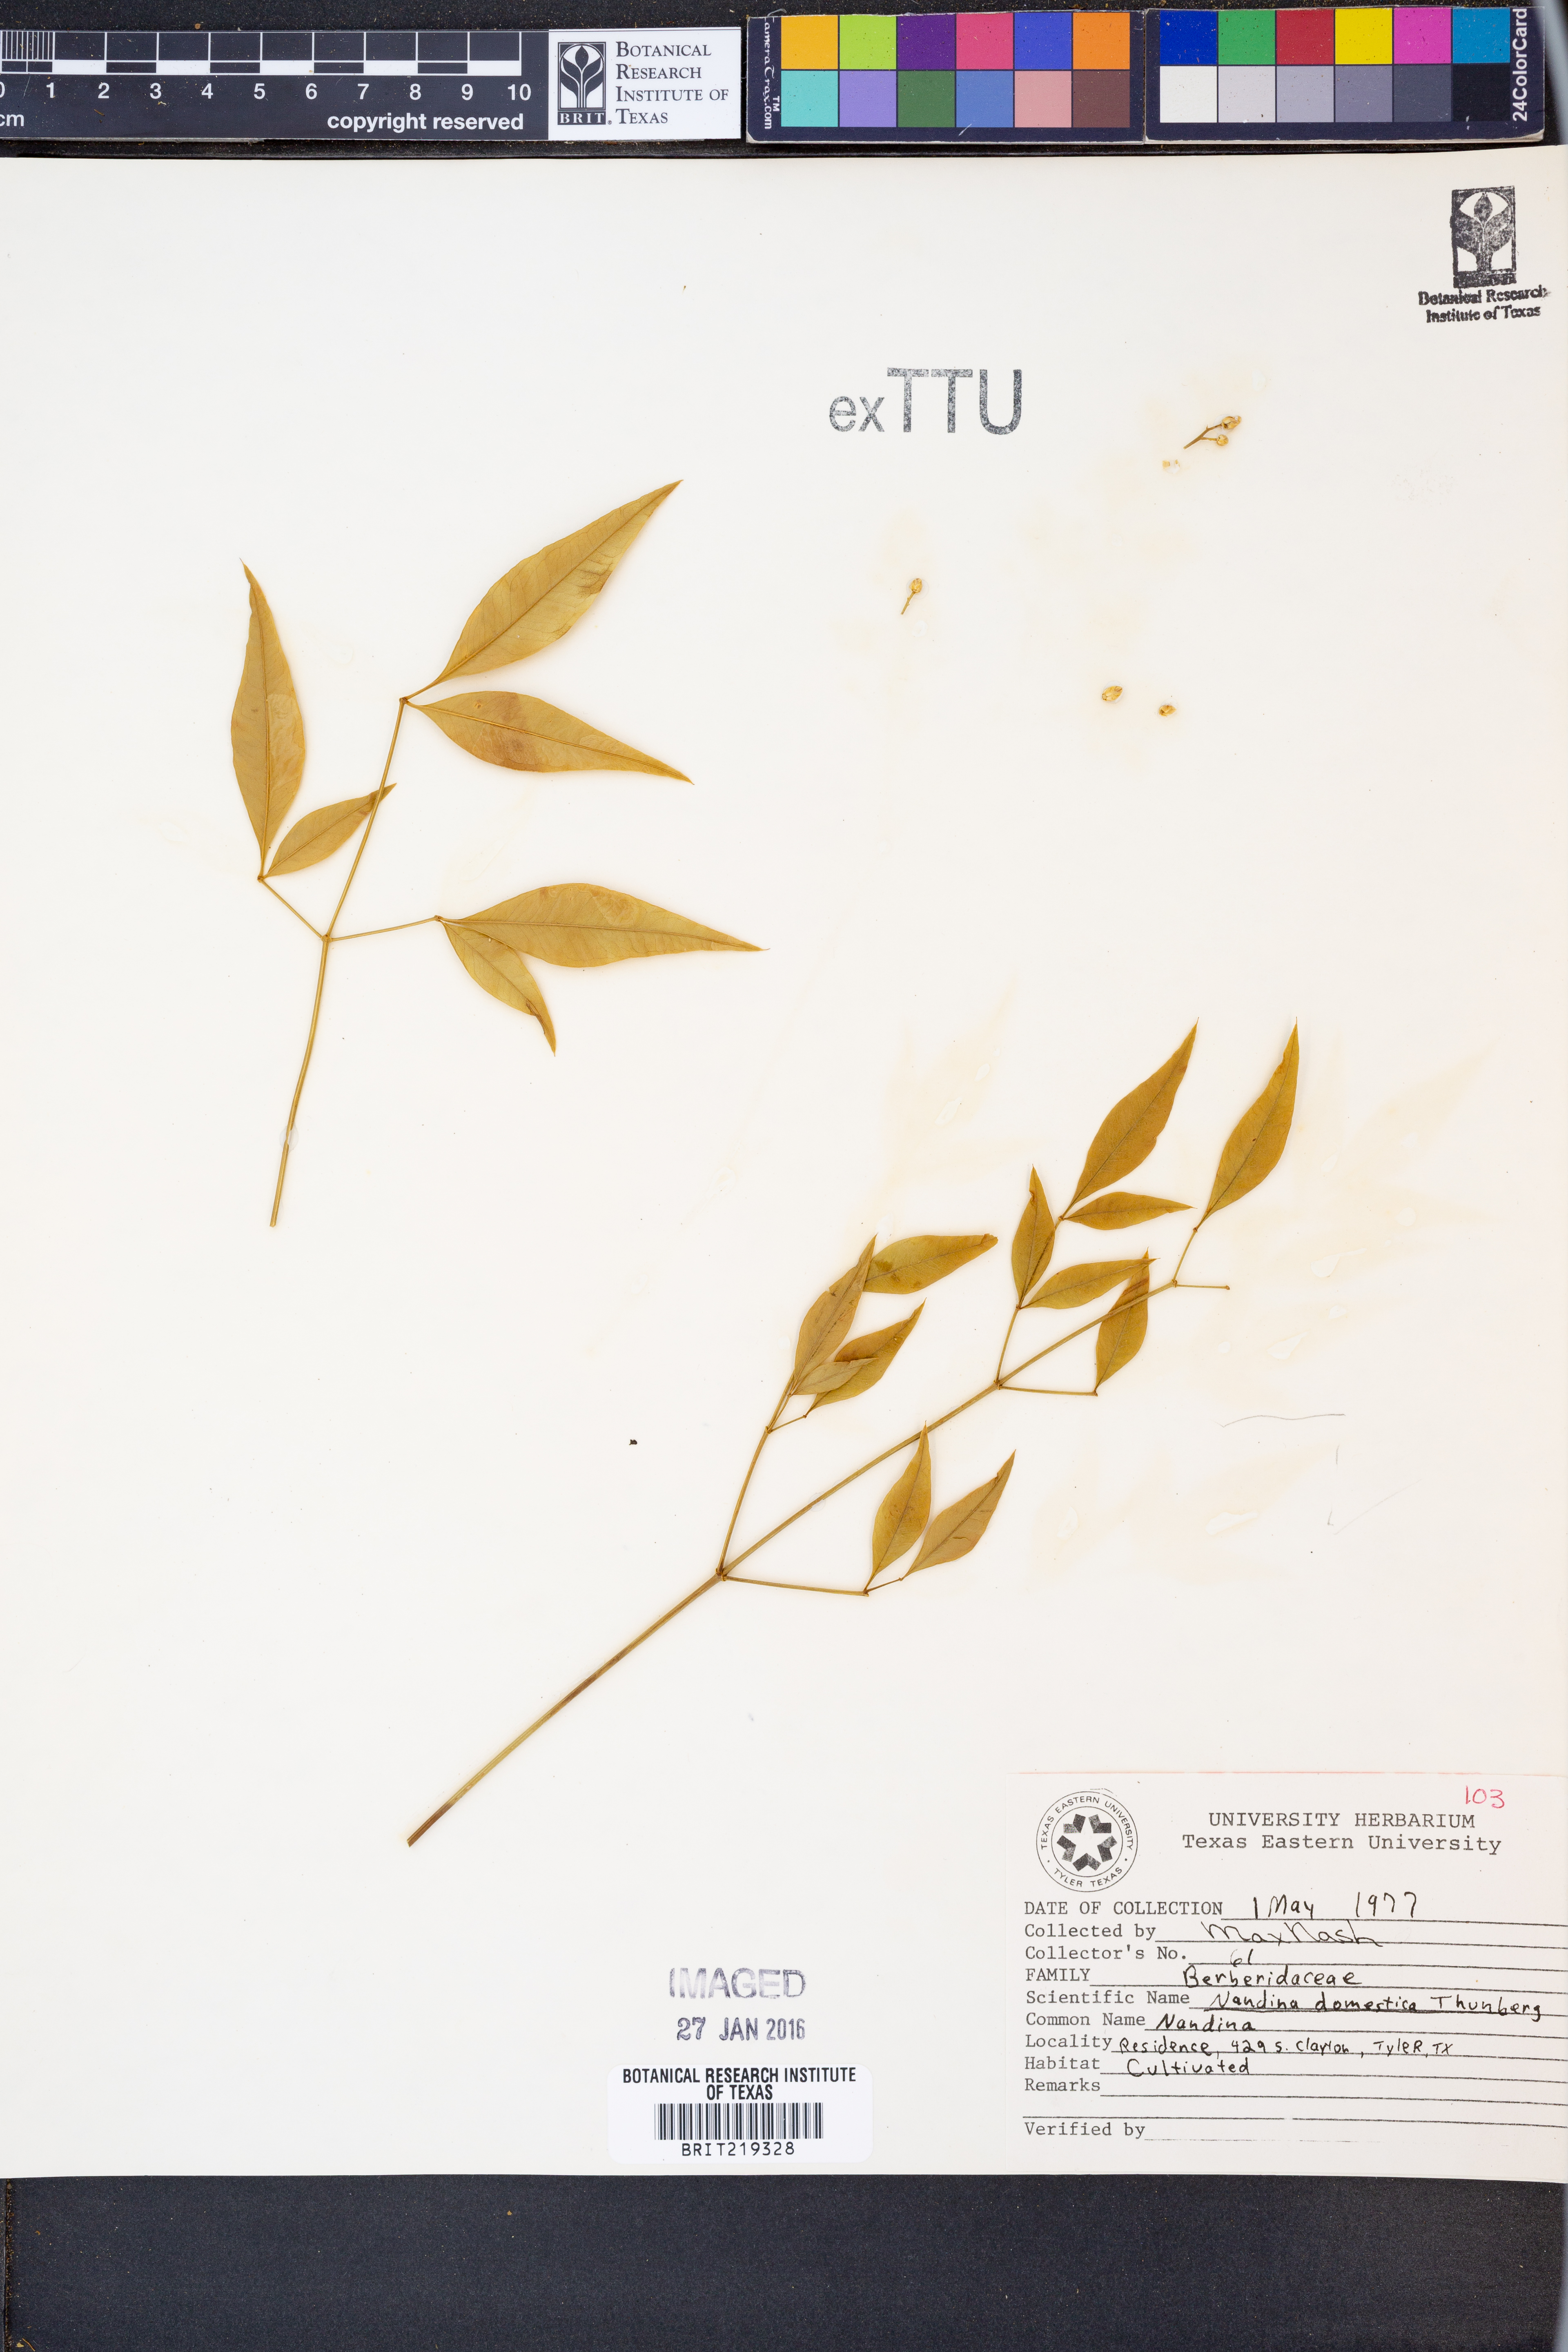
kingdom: Plantae
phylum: Tracheophyta
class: Magnoliopsida
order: Ranunculales
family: Berberidaceae
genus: Nandina
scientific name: Nandina domestica
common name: Sacred bamboo
